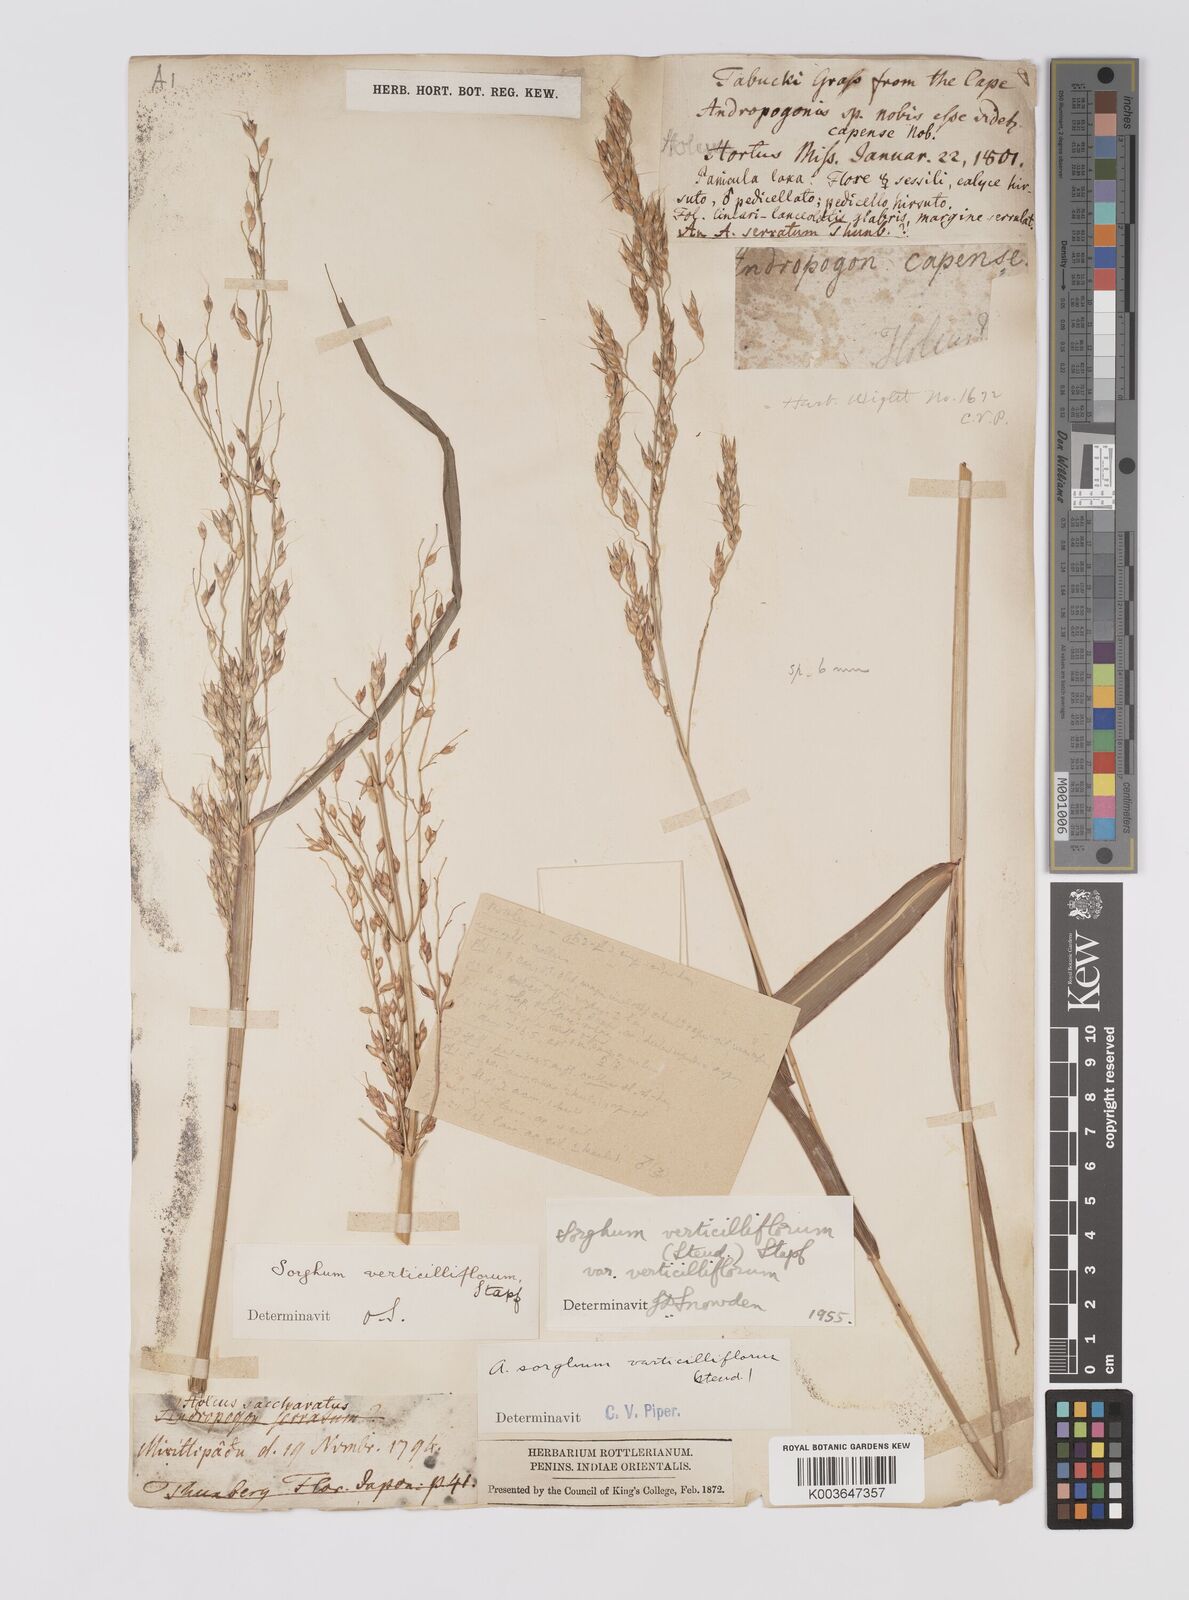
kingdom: Plantae
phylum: Tracheophyta
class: Liliopsida
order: Poales
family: Poaceae
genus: Sorghum
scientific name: Sorghum arundinaceum
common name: Sorghum
